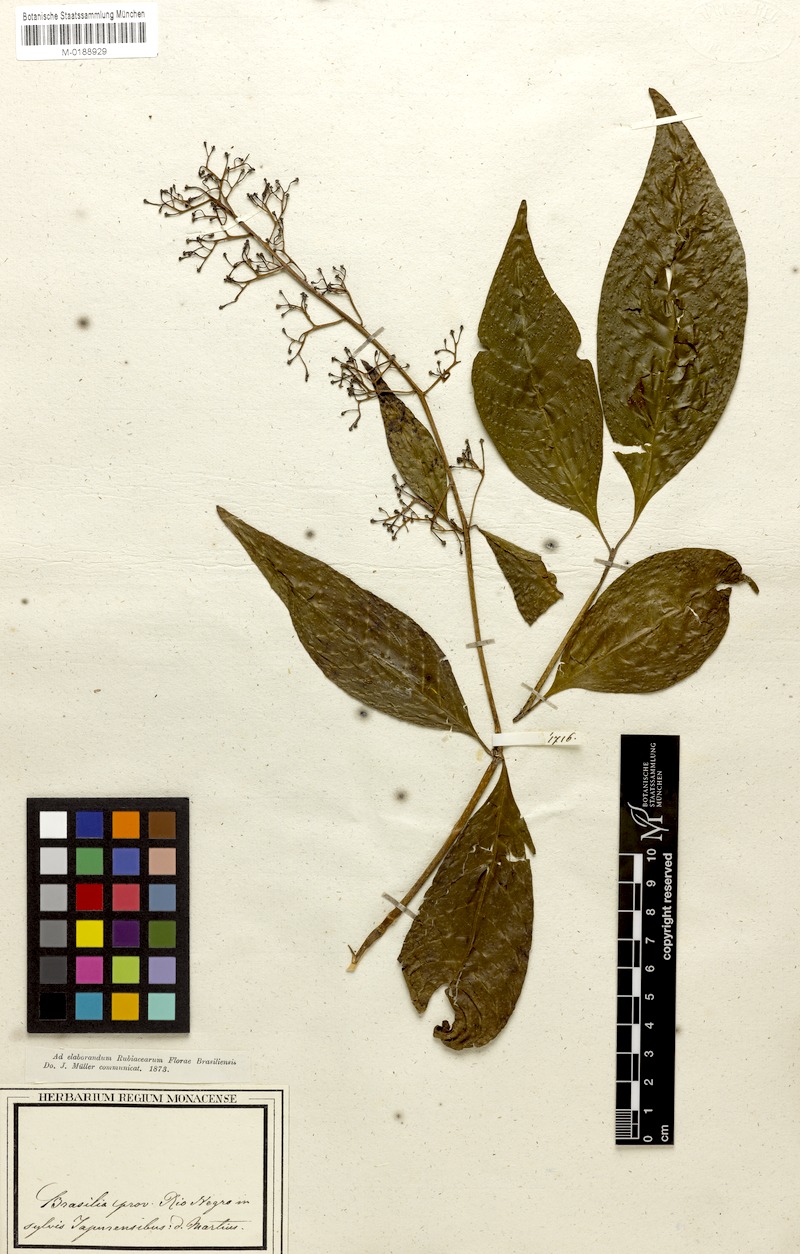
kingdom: Plantae
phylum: Tracheophyta
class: Magnoliopsida
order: Gentianales
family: Rubiaceae
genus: Palicourea
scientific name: Palicourea anisoloba
